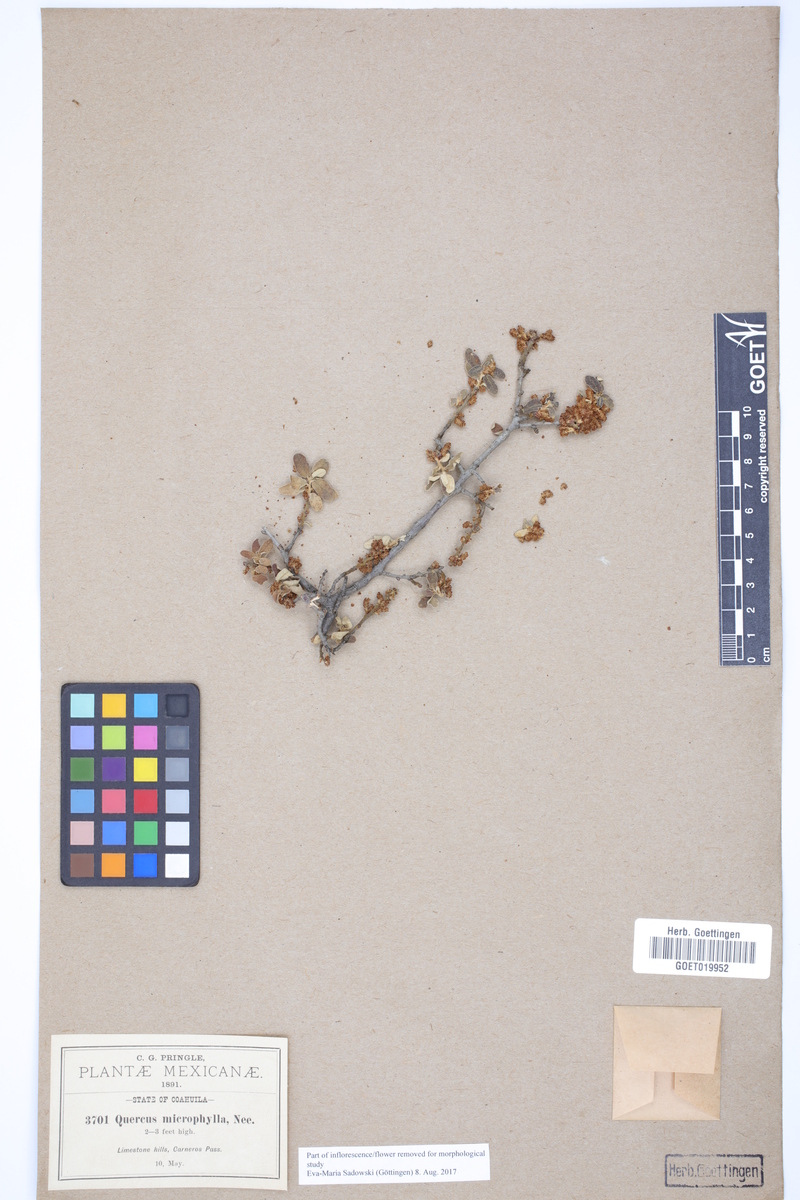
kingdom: Plantae
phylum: Tracheophyta
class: Magnoliopsida
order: Fagales
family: Fagaceae
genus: Quercus
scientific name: Quercus microphylla
